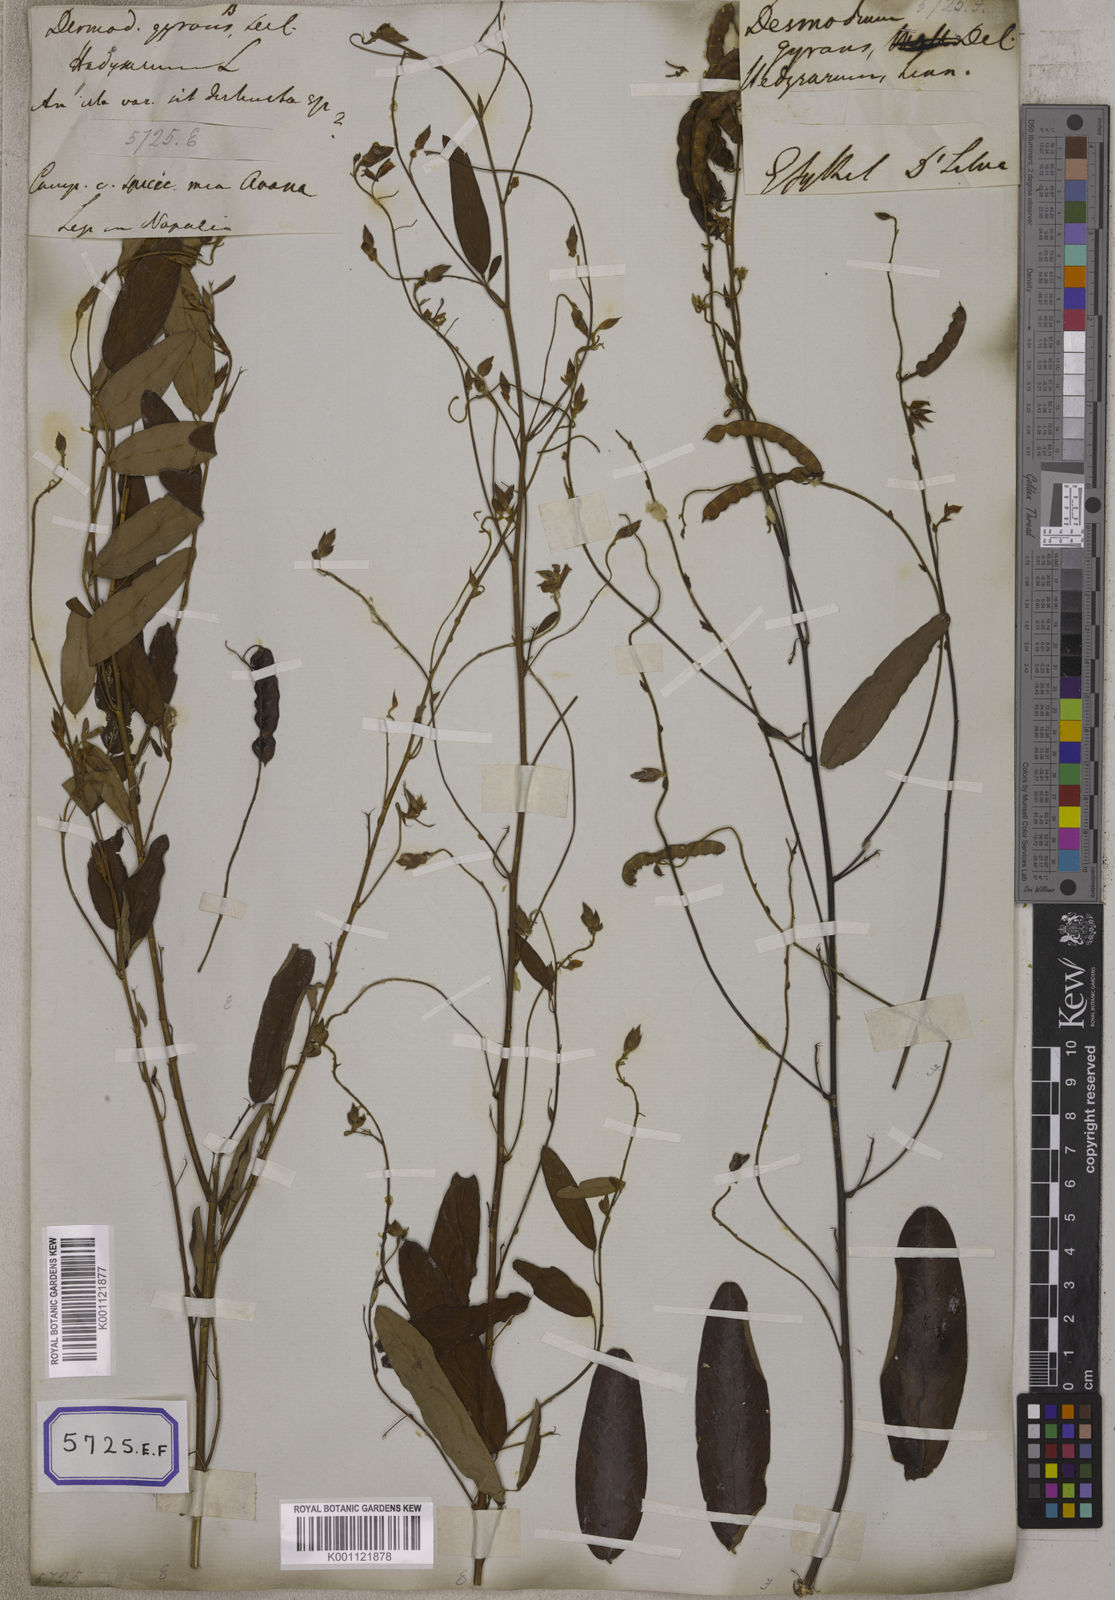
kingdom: Plantae
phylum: Tracheophyta
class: Magnoliopsida
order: Fabales
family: Fabaceae
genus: Codariocalyx
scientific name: Codariocalyx motorius
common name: Telegraph-plant
